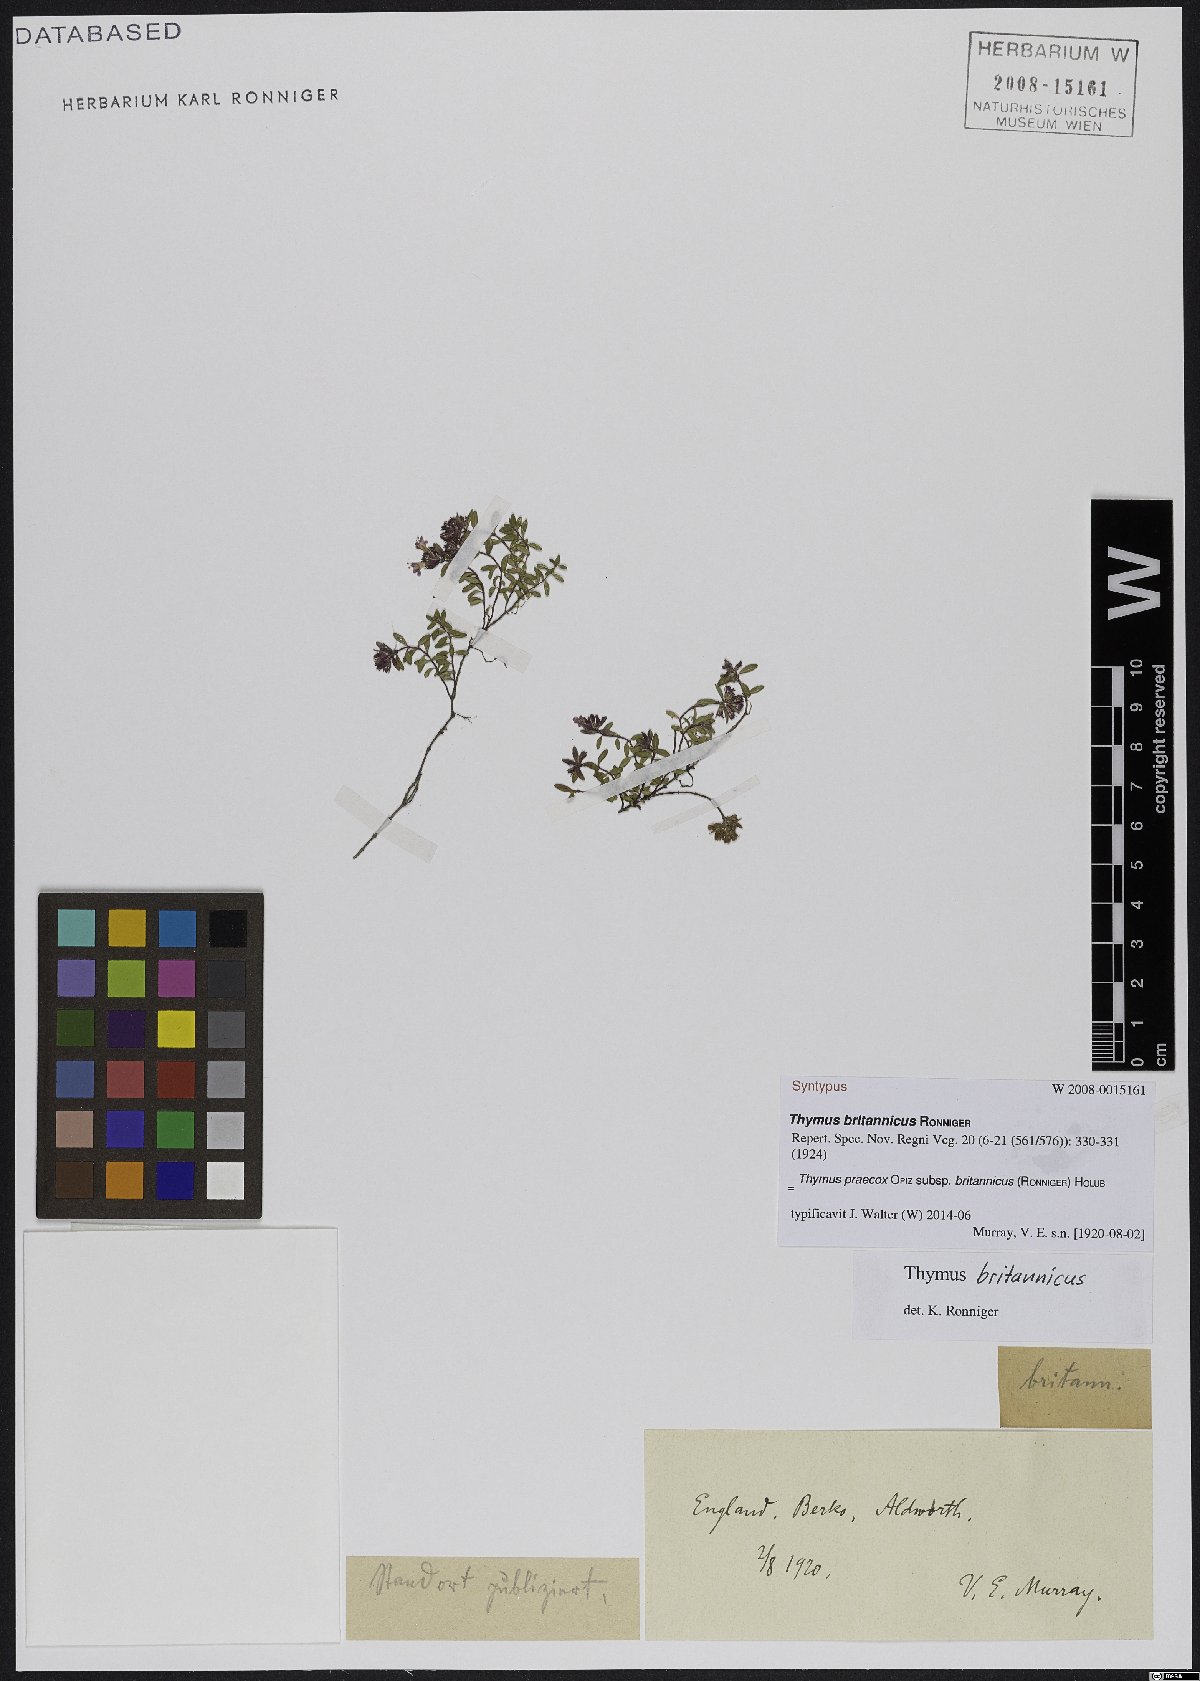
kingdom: Plantae
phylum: Tracheophyta
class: Magnoliopsida
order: Lamiales
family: Lamiaceae
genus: Thymus
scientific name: Thymus praecox
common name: Wild thyme
